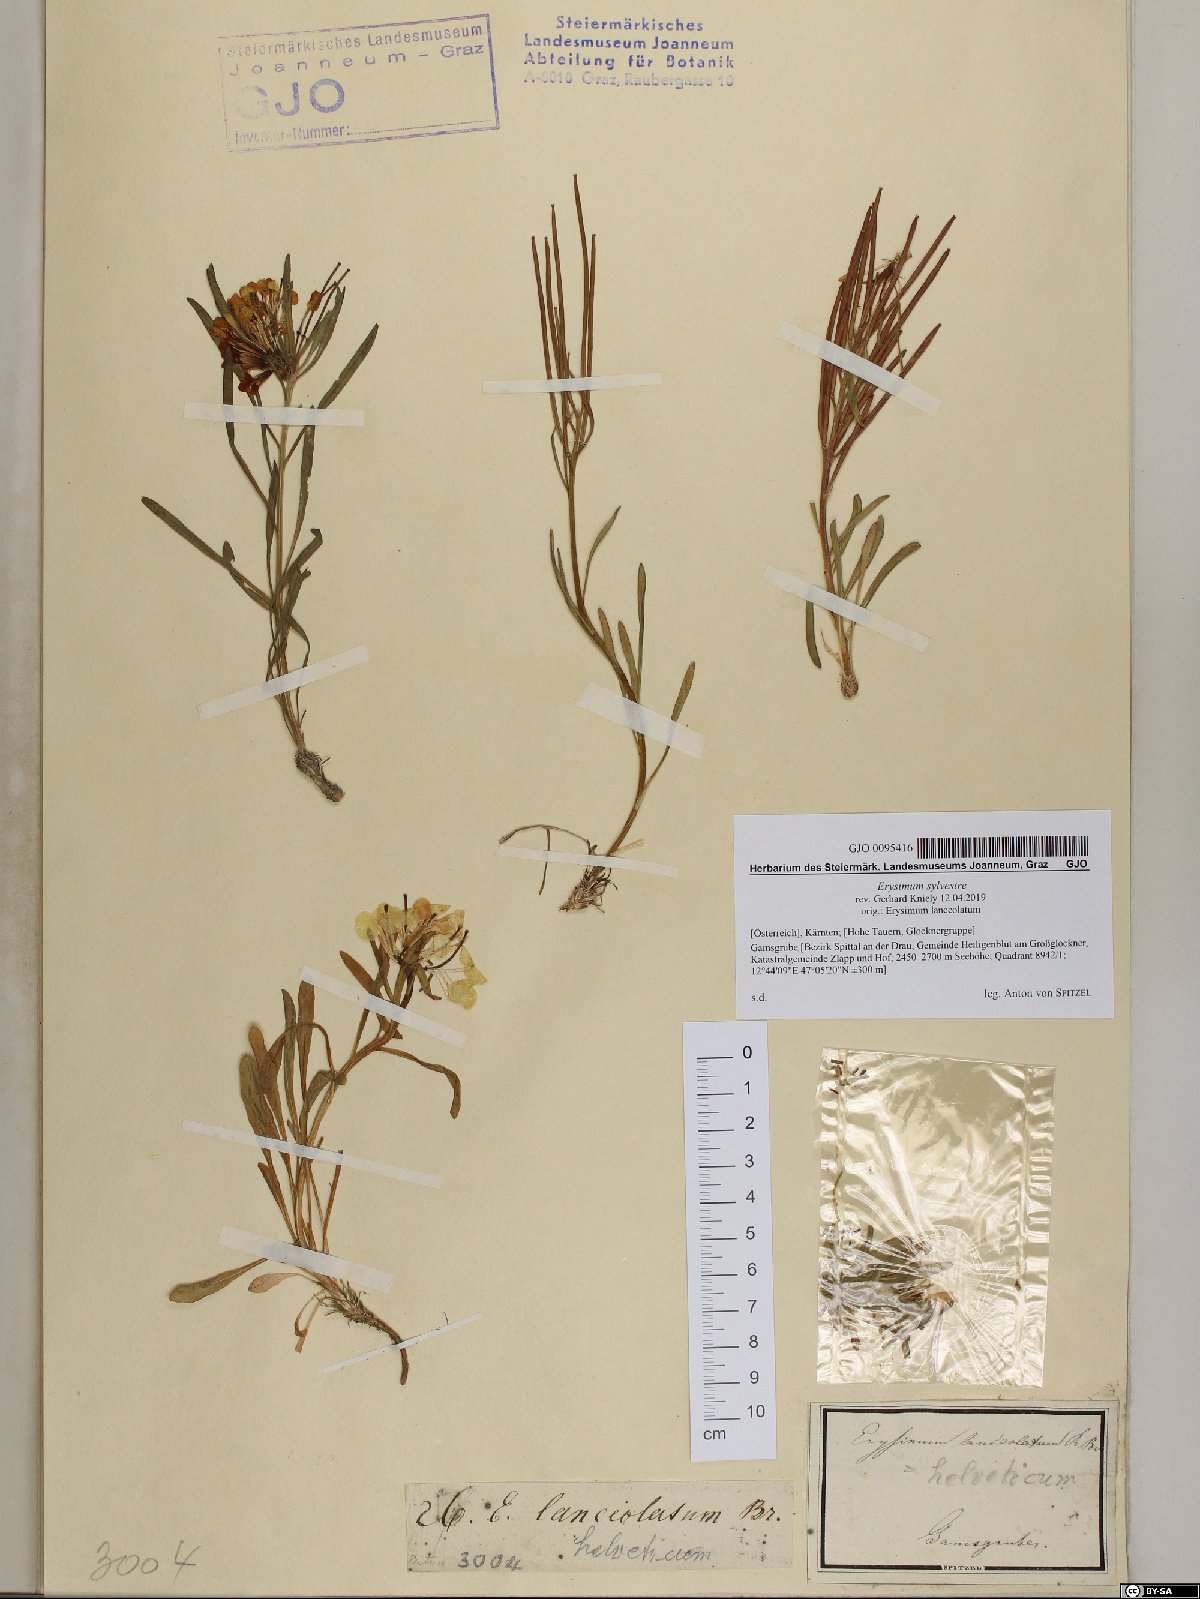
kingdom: Plantae
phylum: Tracheophyta
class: Magnoliopsida
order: Brassicales
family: Brassicaceae
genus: Erysimum
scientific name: Erysimum sylvestre
